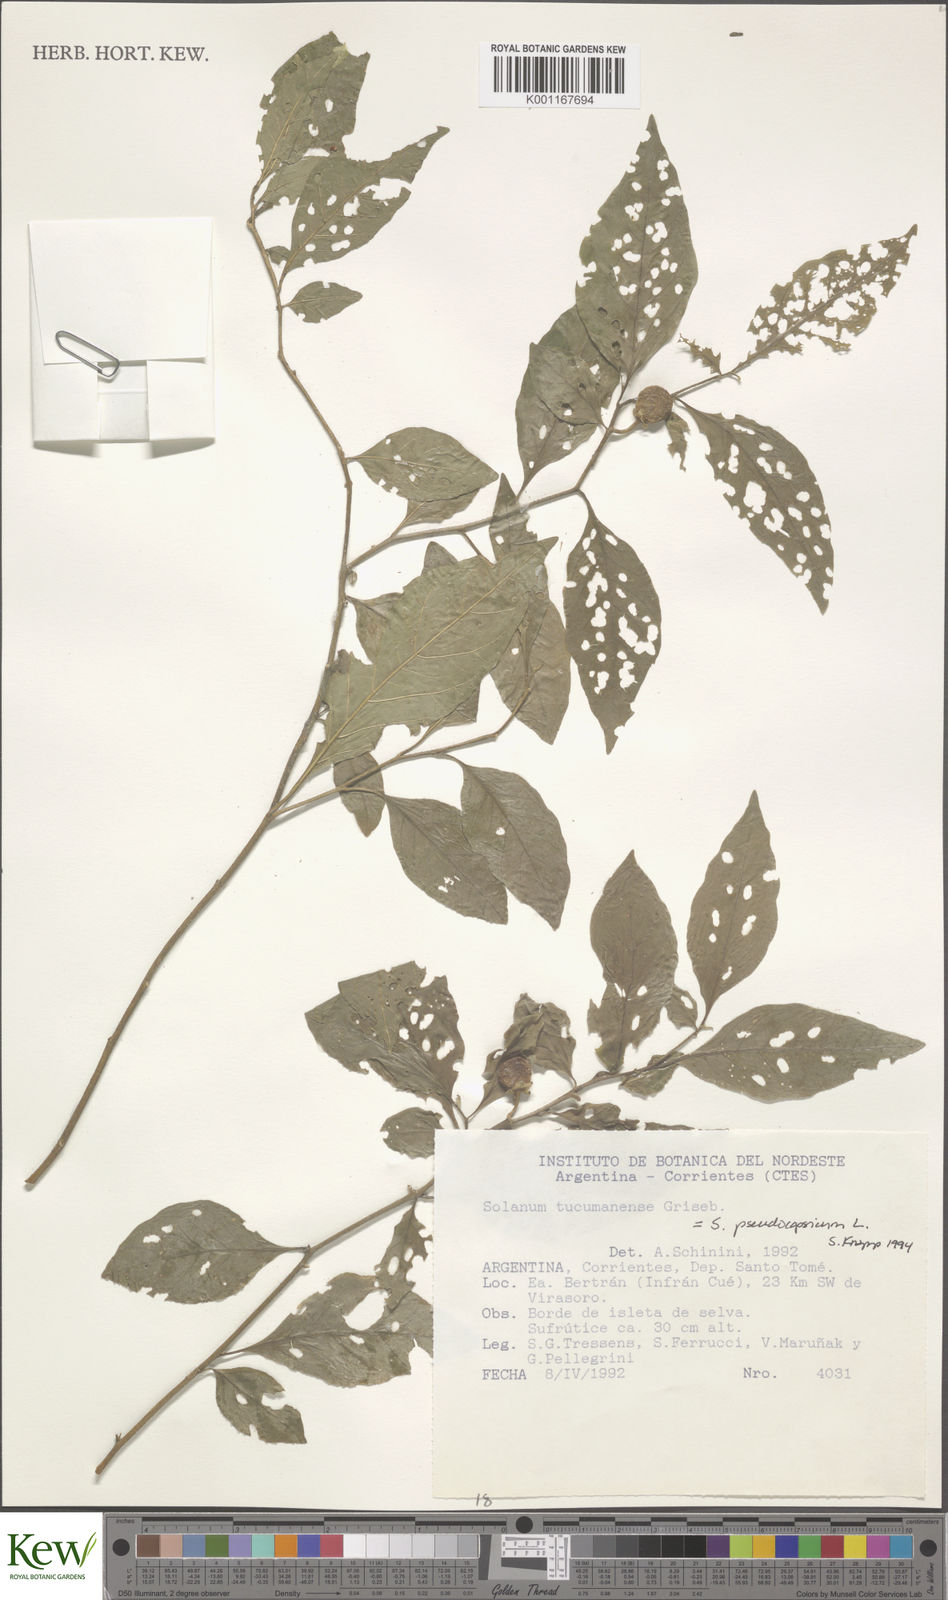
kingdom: Plantae
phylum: Tracheophyta
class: Magnoliopsida
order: Solanales
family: Solanaceae
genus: Solanum
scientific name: Solanum pseudocapsicum
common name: Jerusalem cherry
